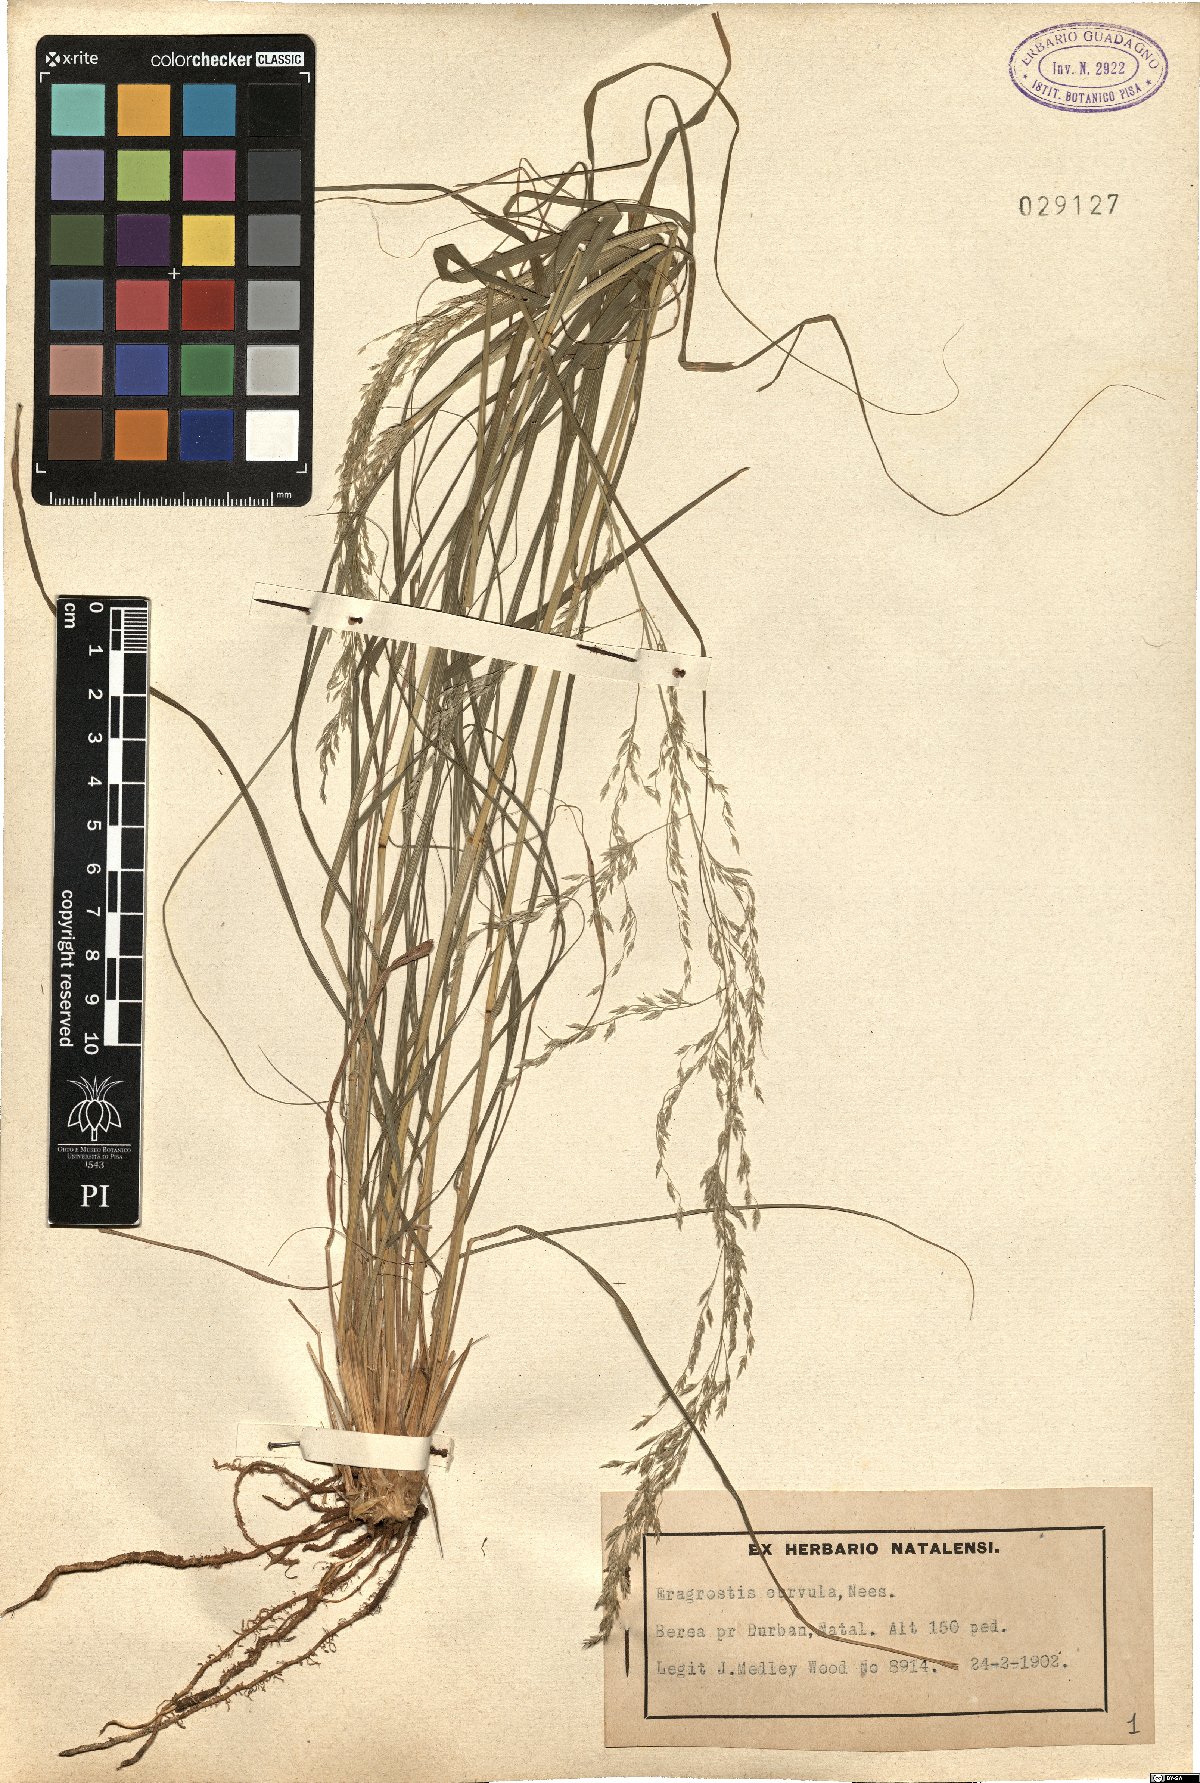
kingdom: Plantae
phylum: Tracheophyta
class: Liliopsida
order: Poales
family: Poaceae
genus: Eragrostis
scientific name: Eragrostis curvula
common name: African love-grass
